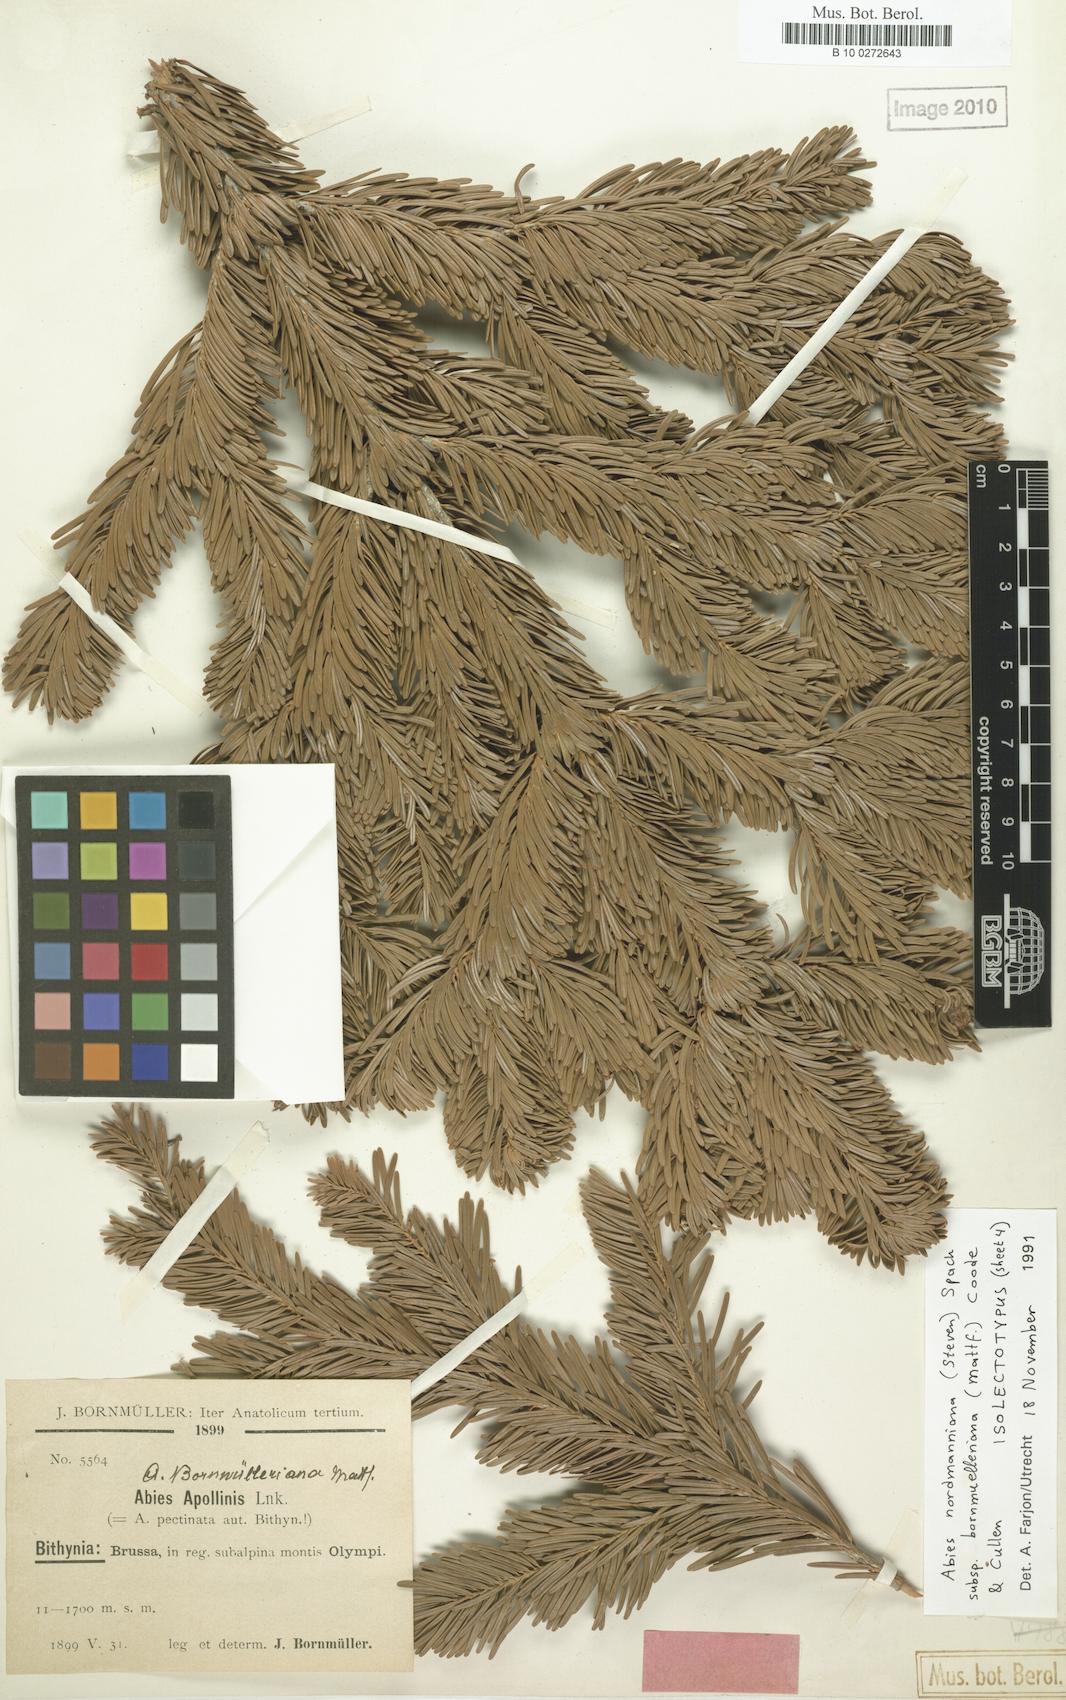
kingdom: Plantae
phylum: Tracheophyta
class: Pinopsida
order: Pinales
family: Pinaceae
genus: Abies
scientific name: Abies nordmanniana
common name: Caucasian fir
